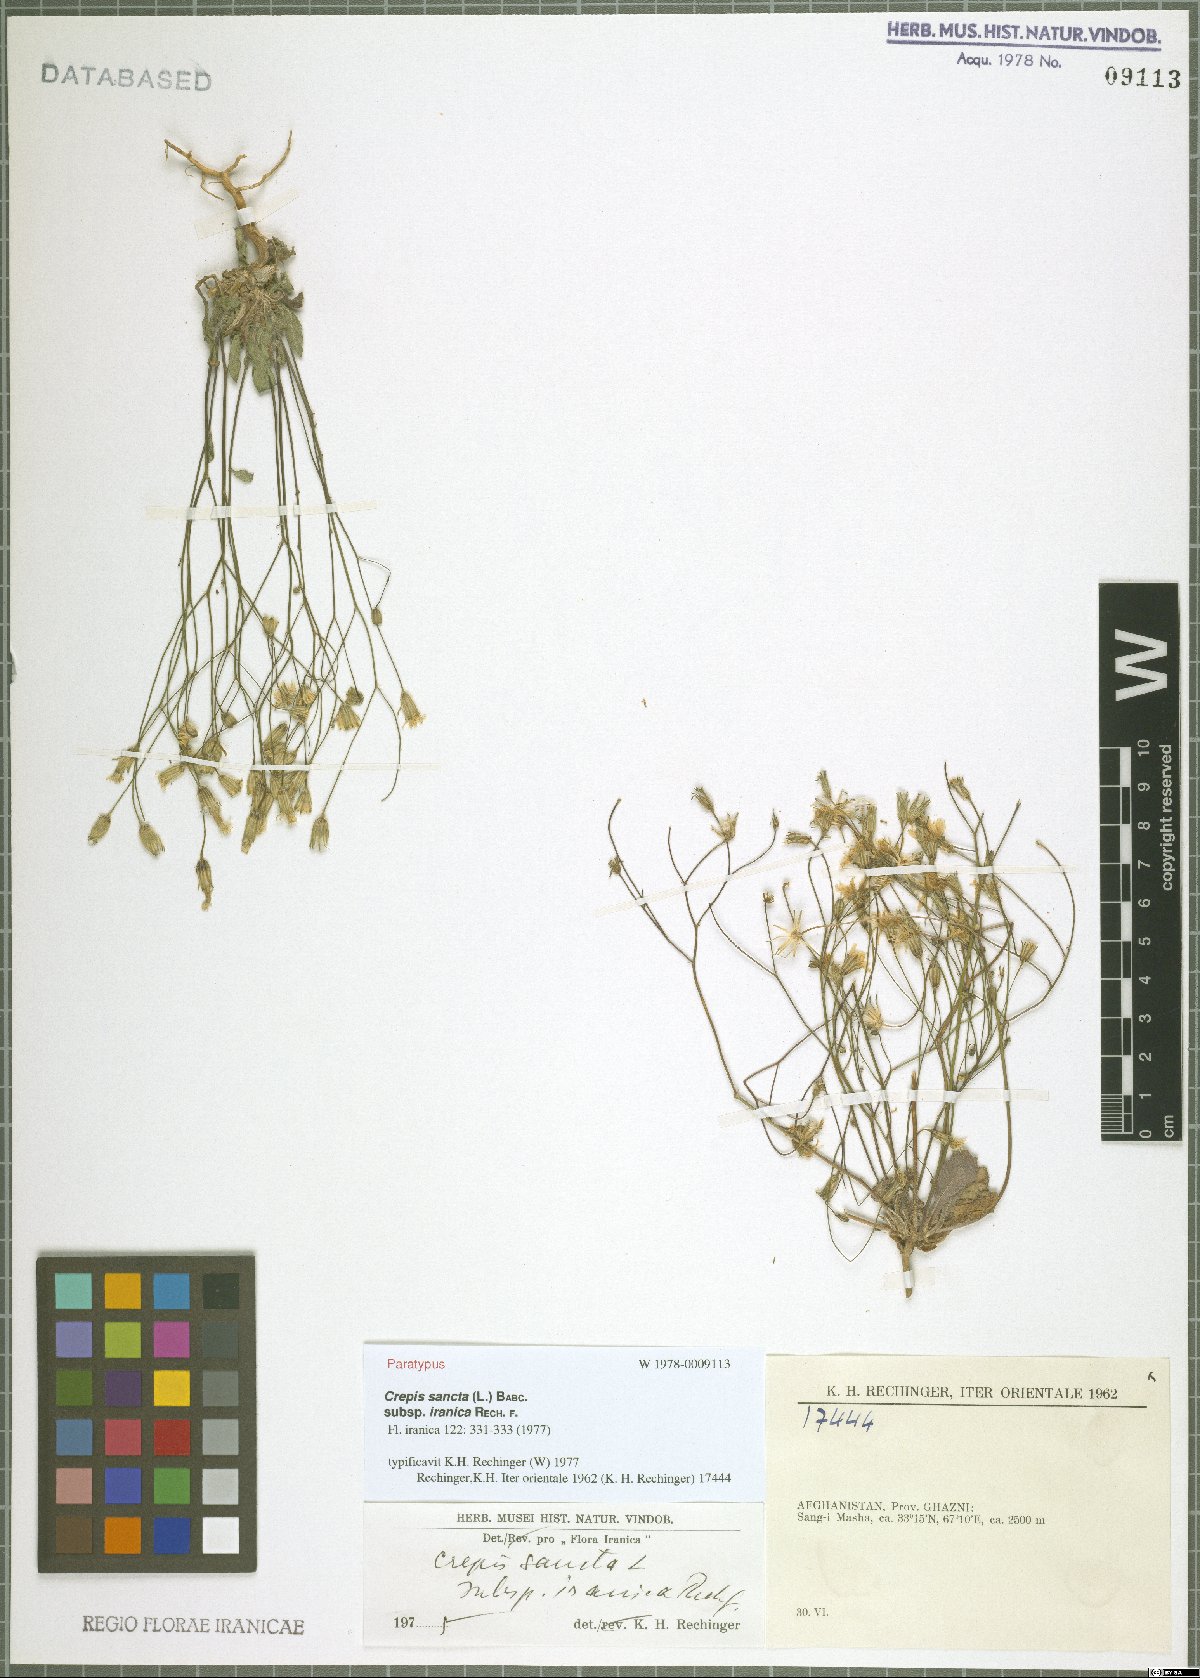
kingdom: Plantae
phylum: Tracheophyta
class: Magnoliopsida
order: Asterales
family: Asteraceae
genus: Crepis
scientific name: Crepis sancta
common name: Hawk's-beard
